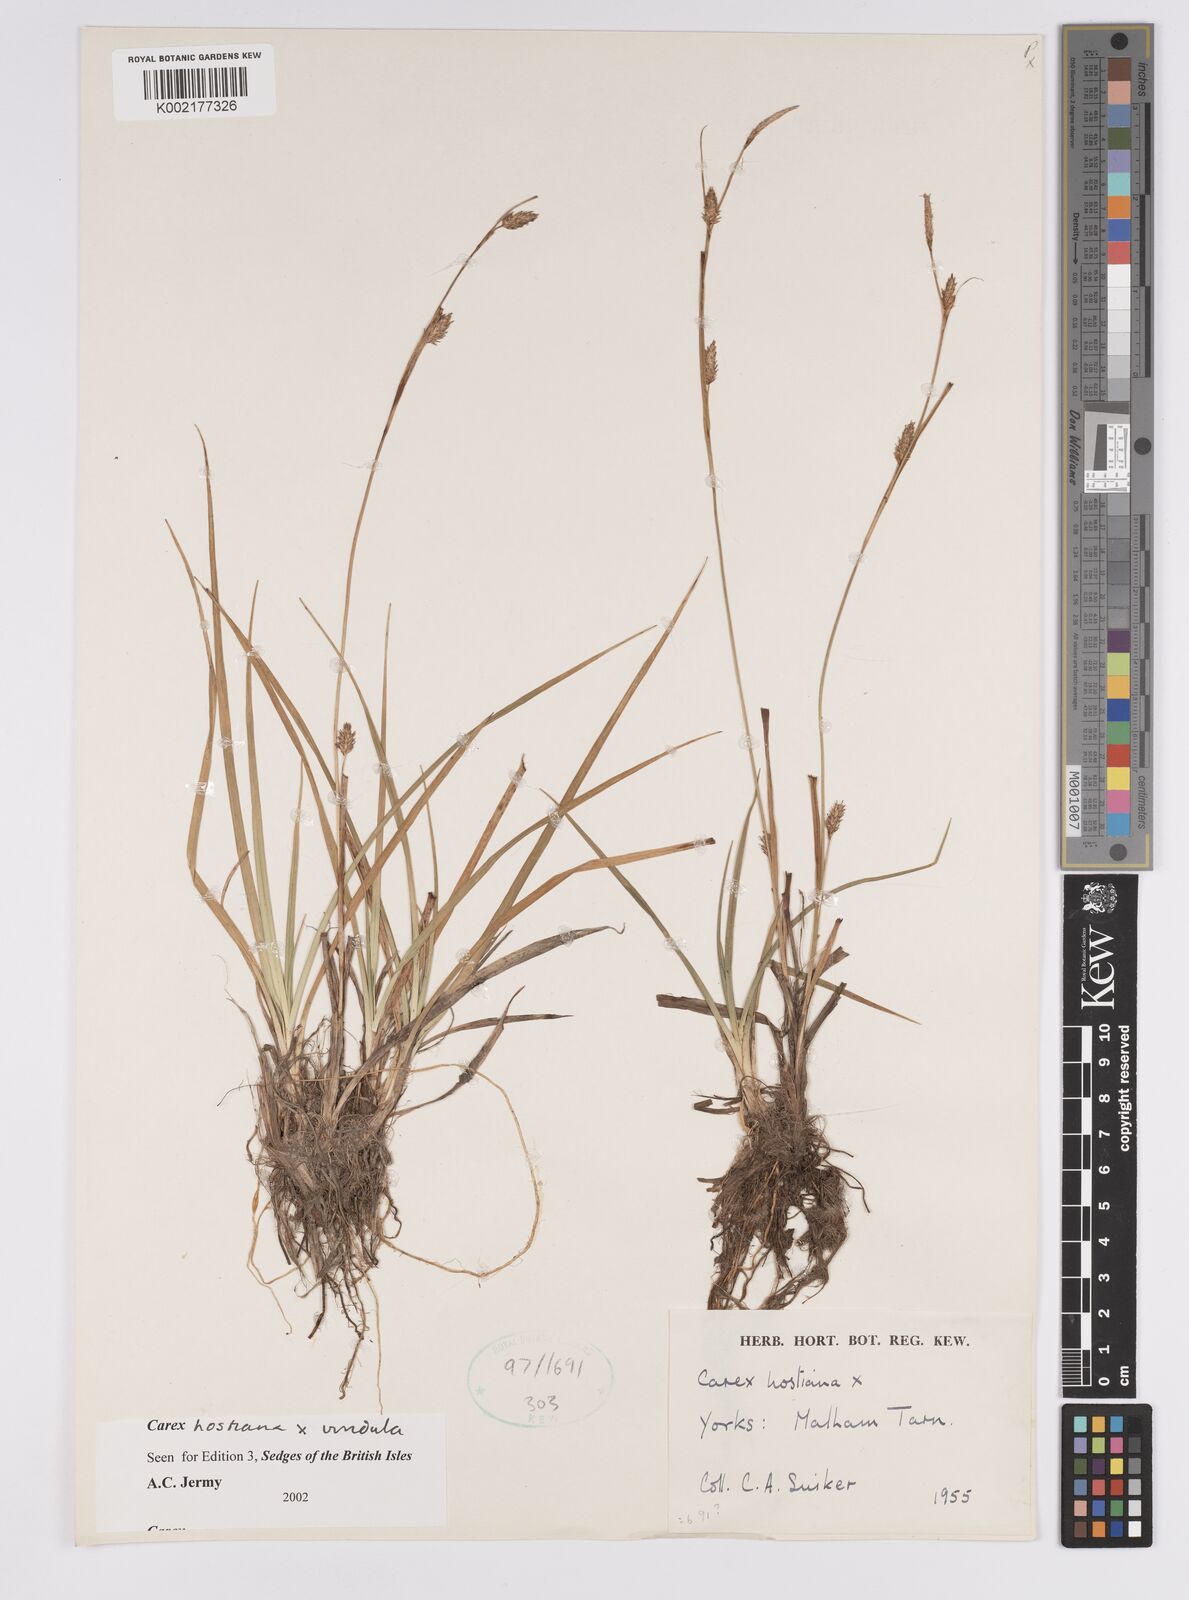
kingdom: Plantae
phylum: Tracheophyta
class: Liliopsida
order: Poales
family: Cyperaceae
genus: Carex
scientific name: Carex hostiana
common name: Tawny sedge
